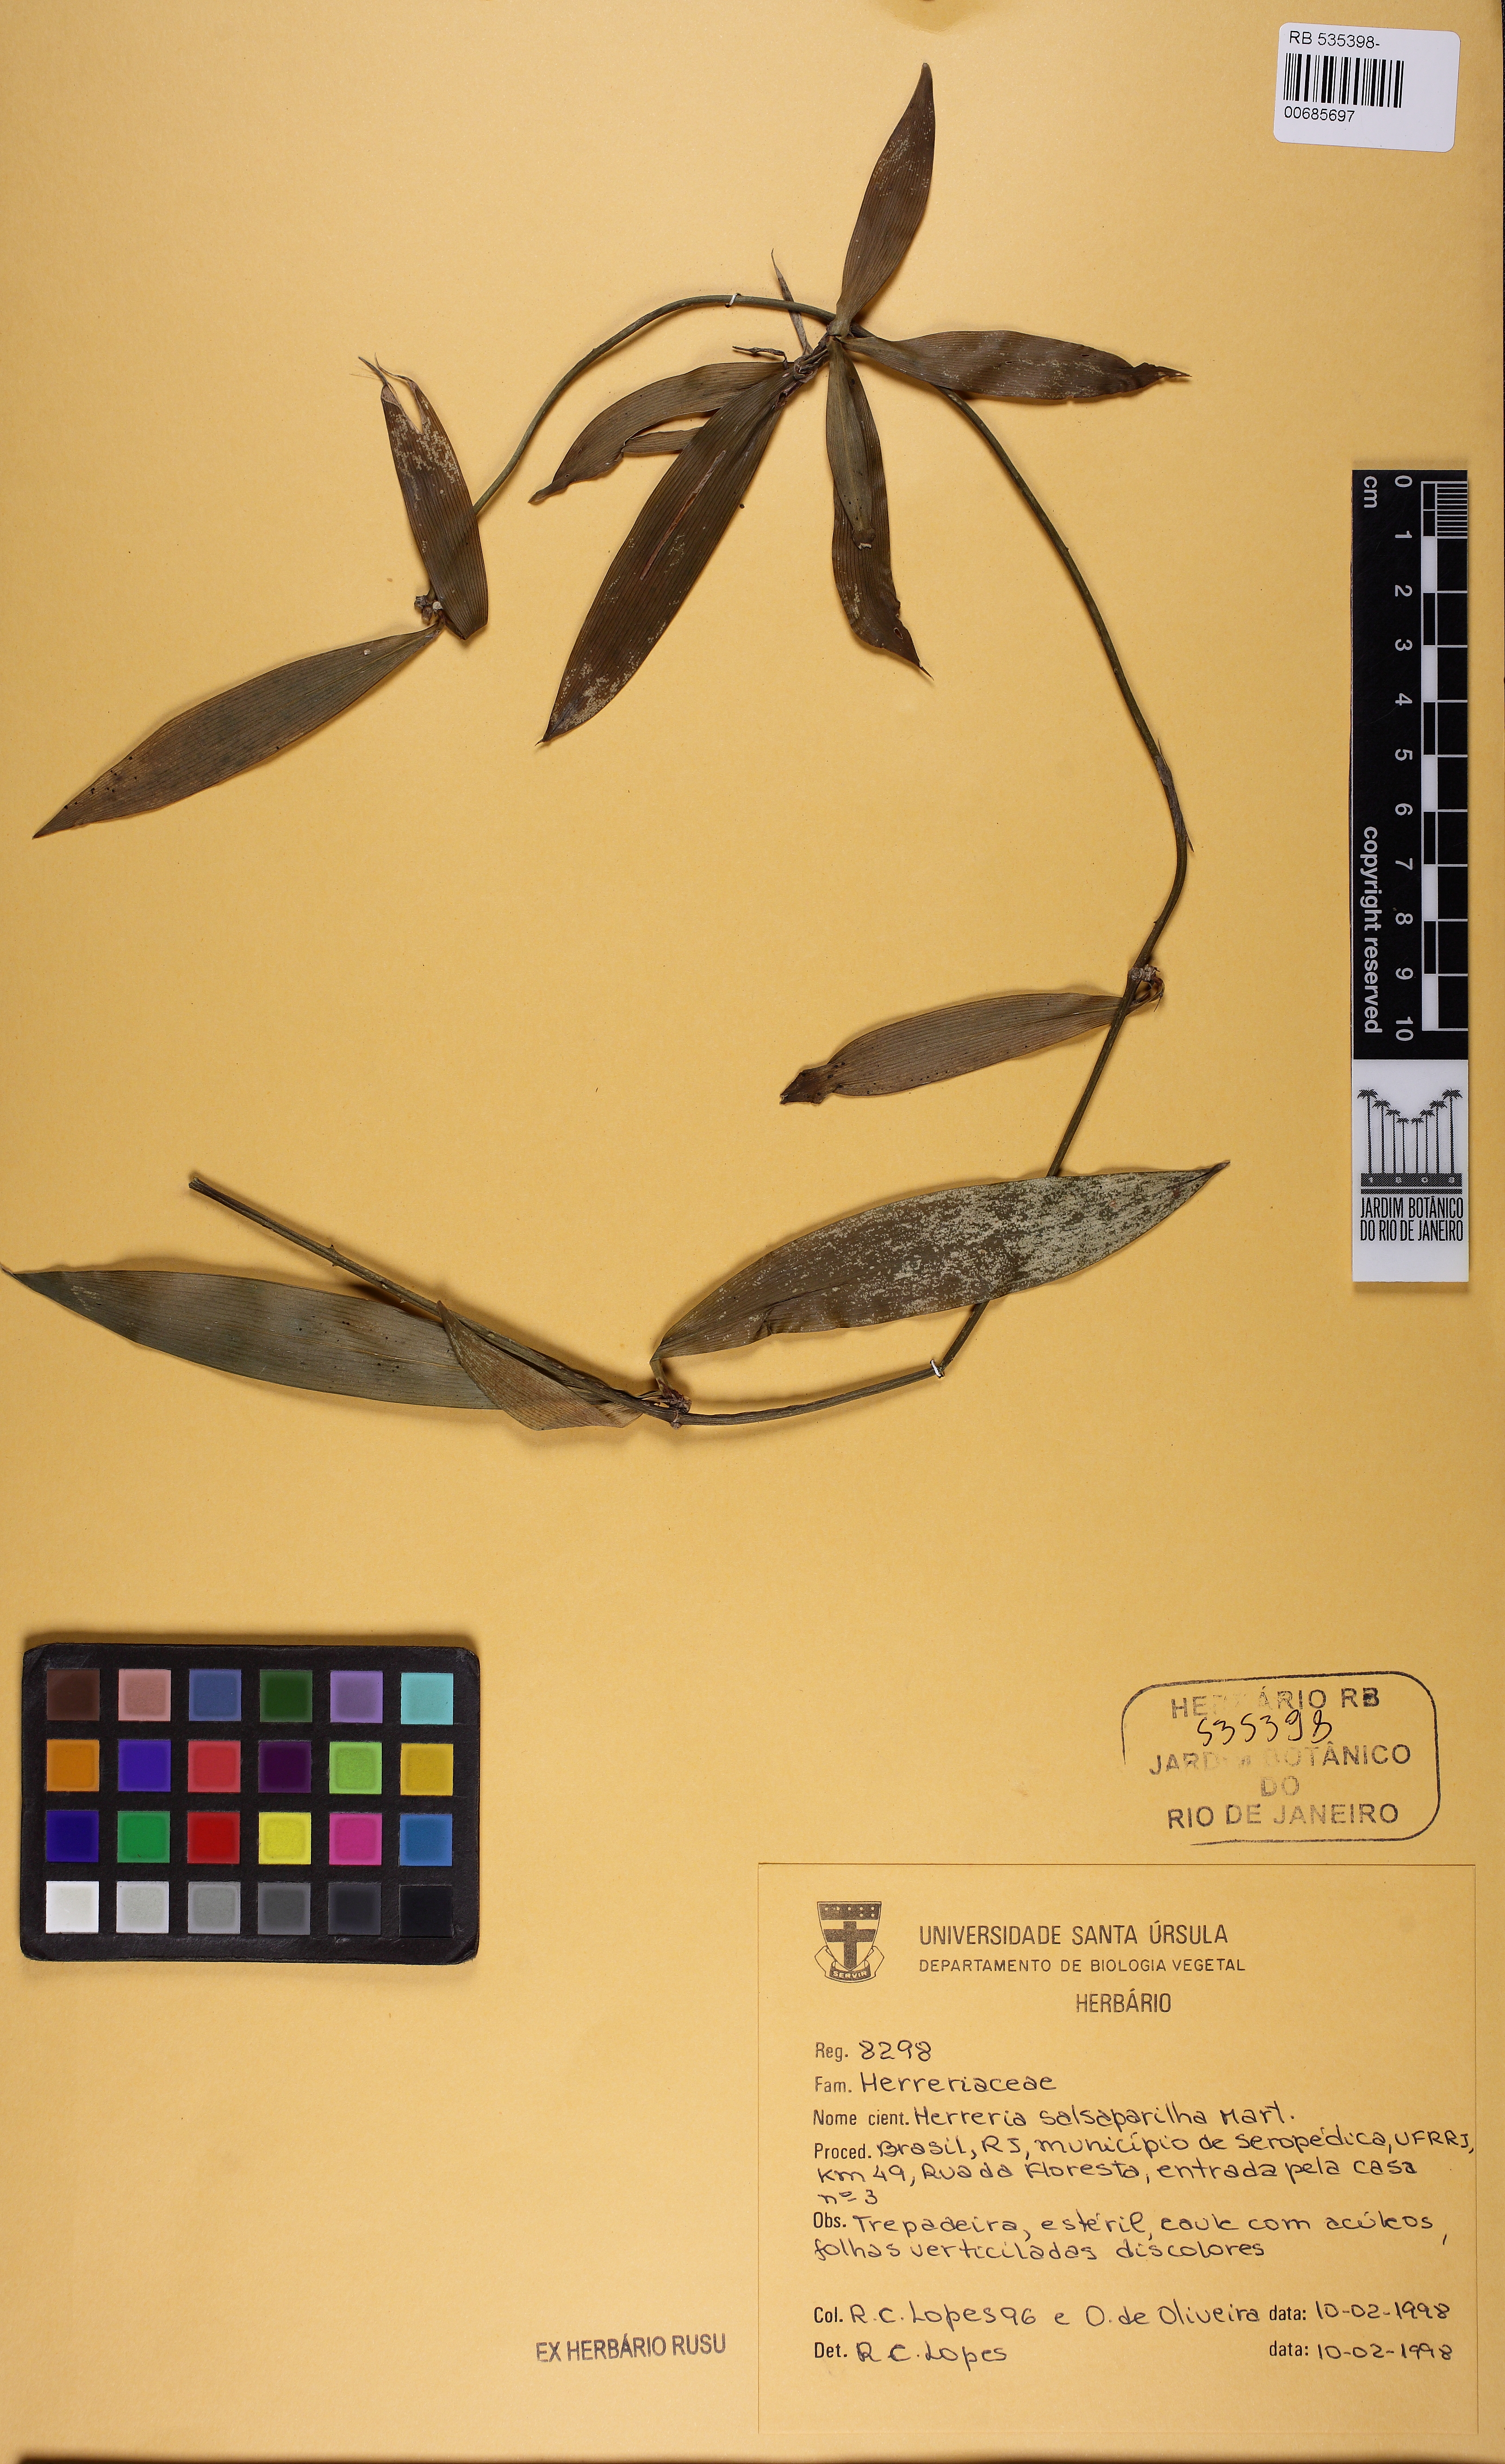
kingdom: Plantae
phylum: Tracheophyta
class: Liliopsida
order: Asparagales
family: Asparagaceae
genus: Herreria
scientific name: Herreria salsaparilha
